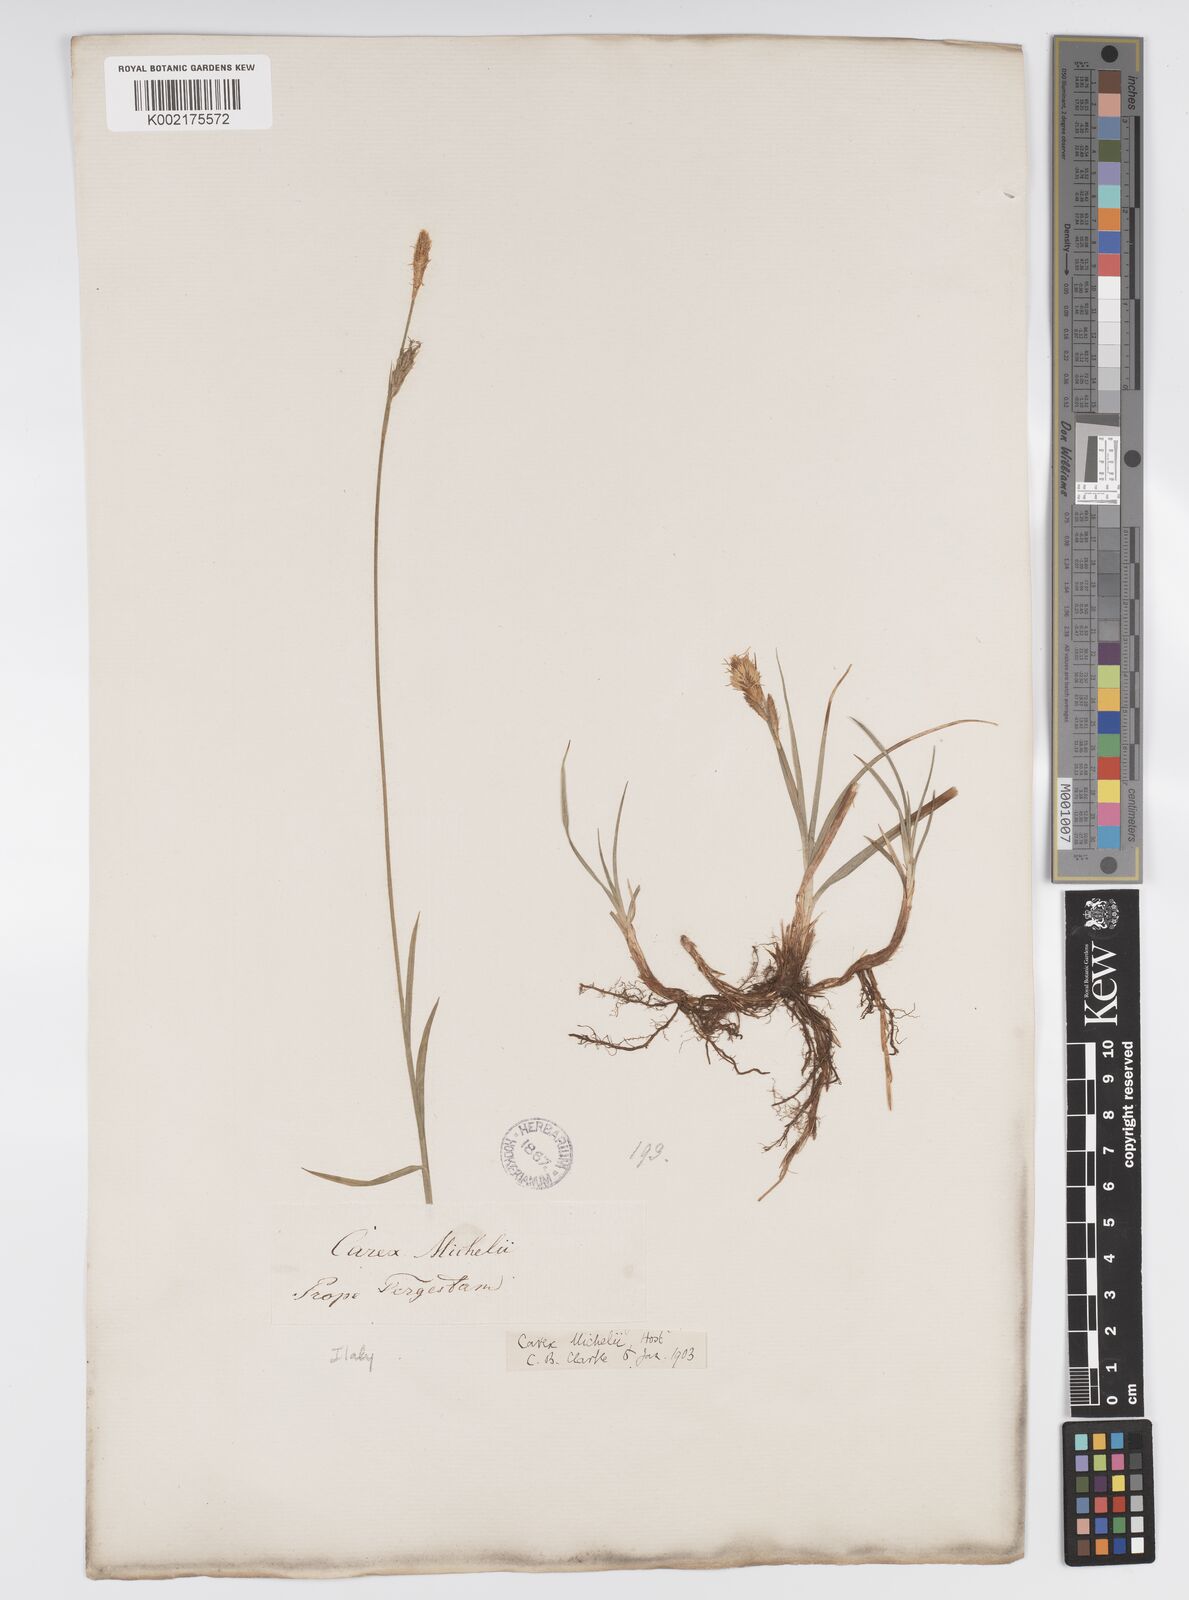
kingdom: Plantae
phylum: Tracheophyta
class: Liliopsida
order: Poales
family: Cyperaceae
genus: Carex
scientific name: Carex michelii
